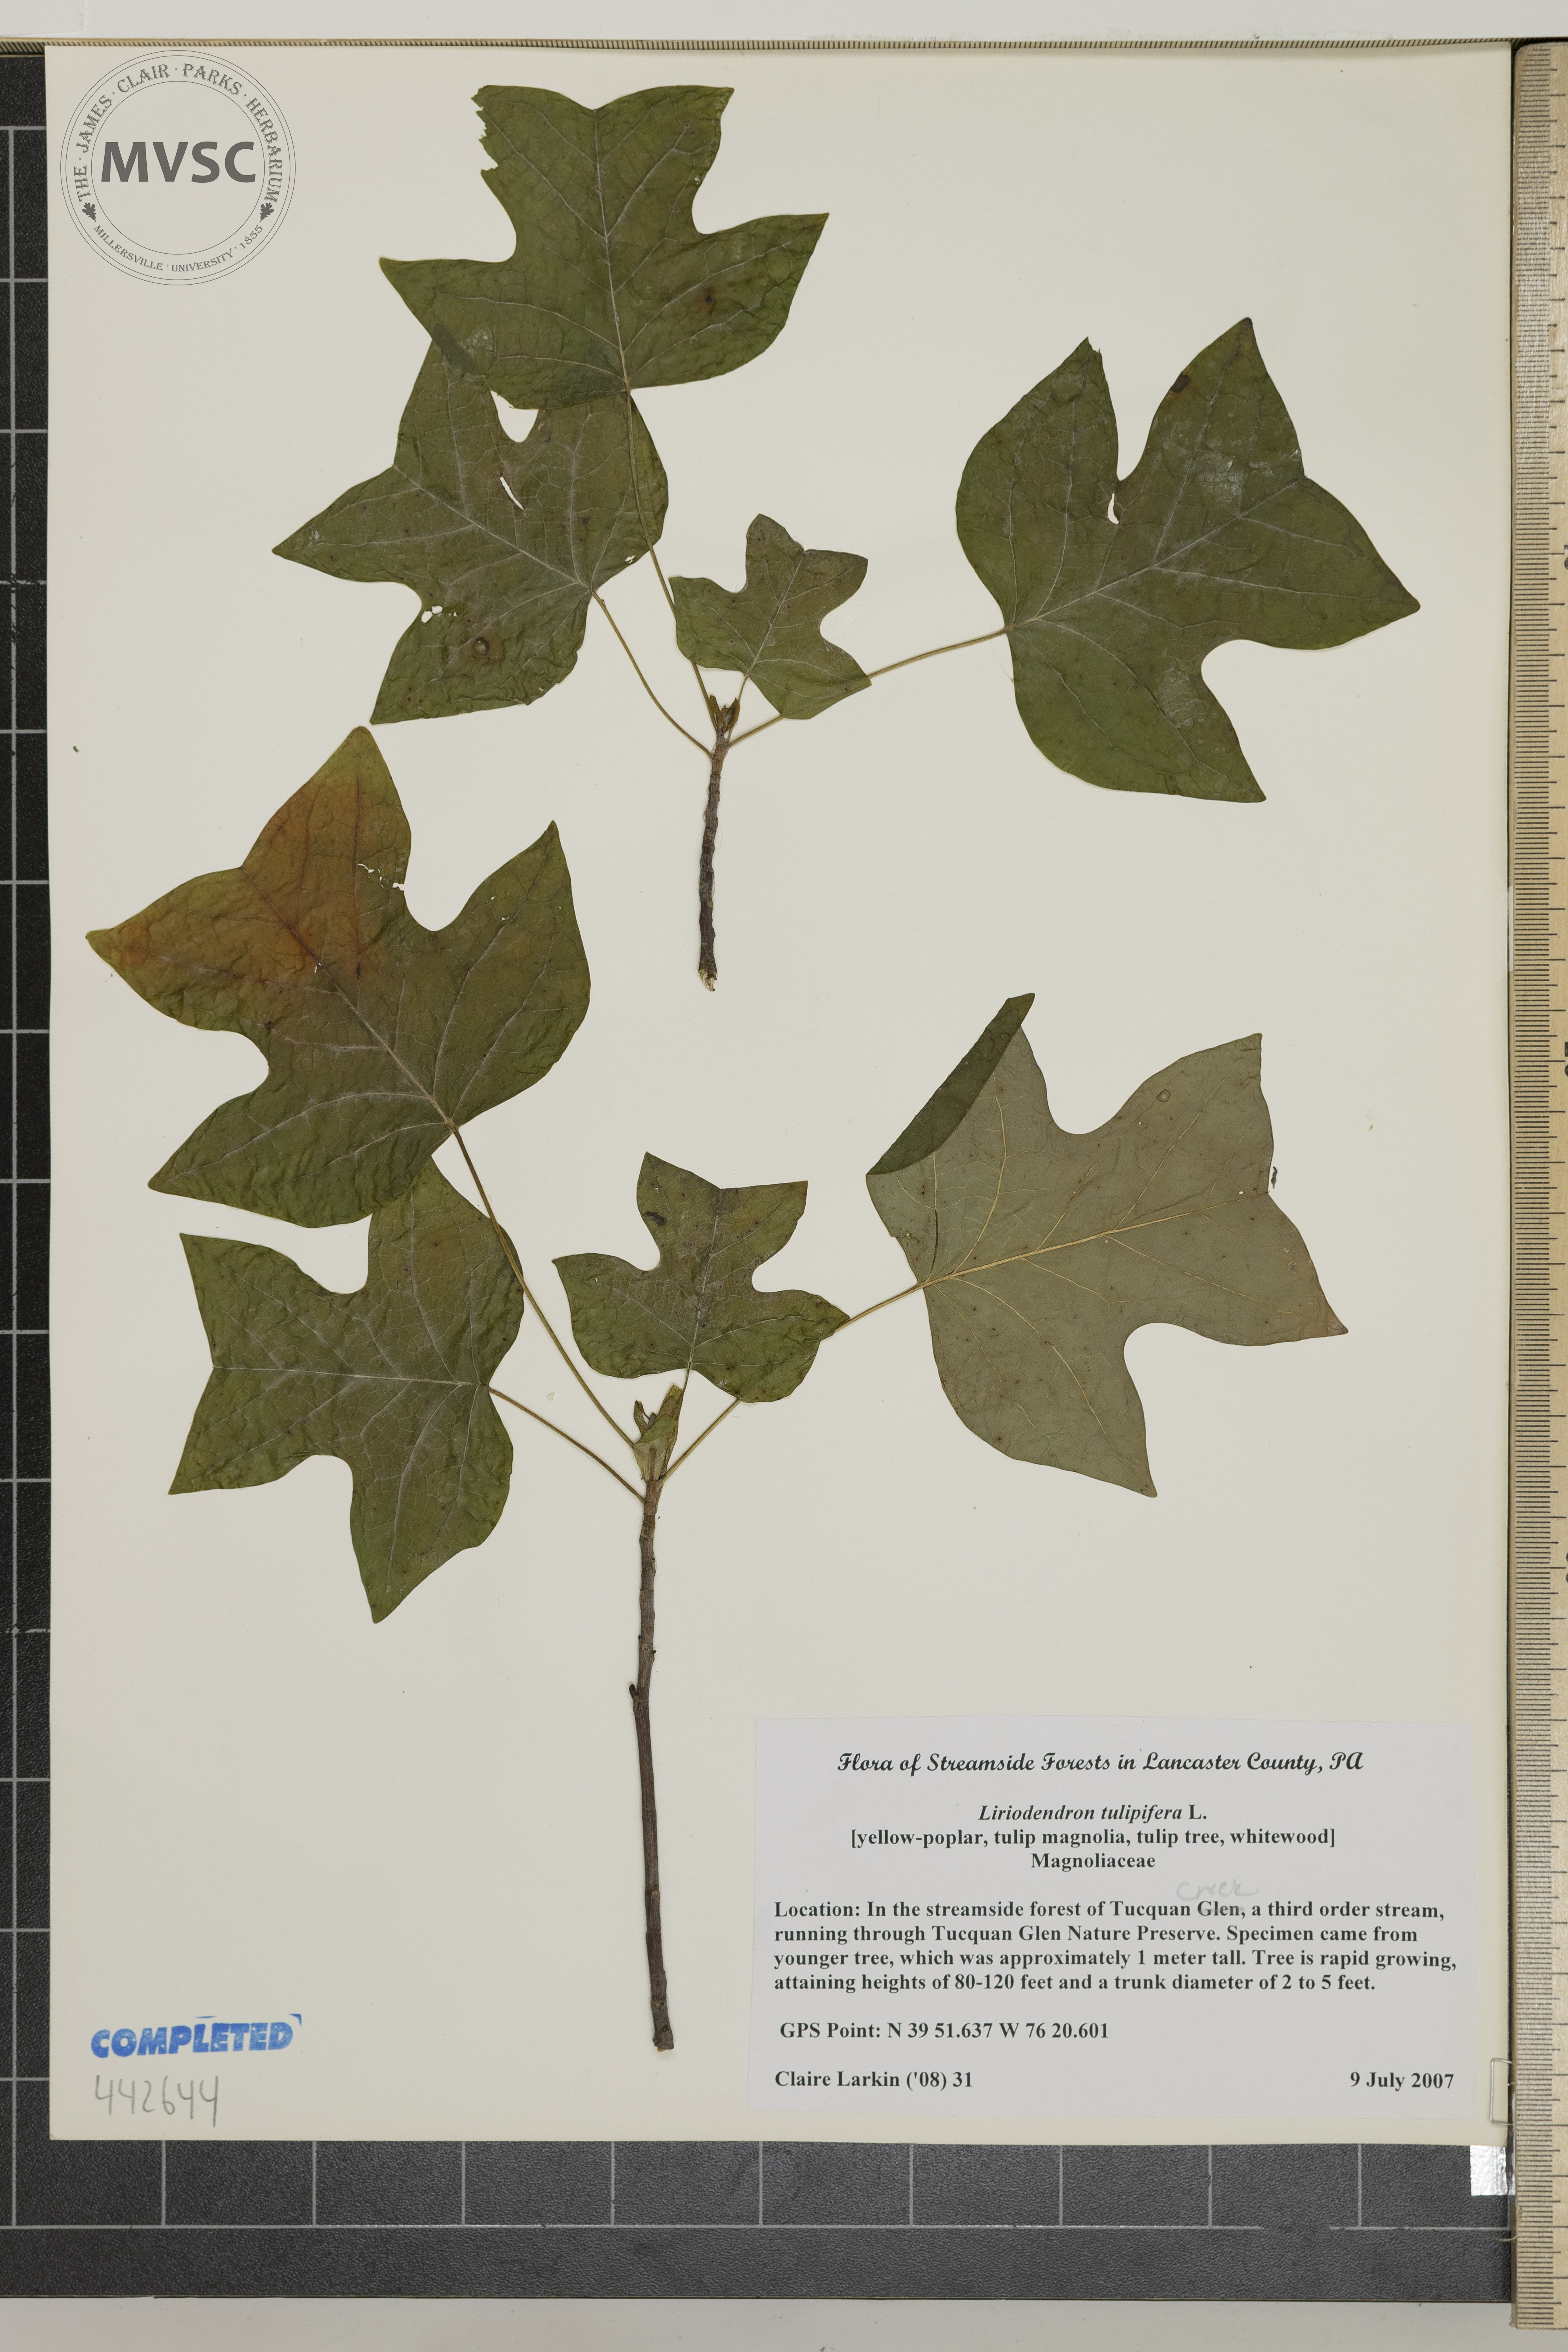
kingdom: Plantae
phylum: Tracheophyta
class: Magnoliopsida
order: Magnoliales
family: Magnoliaceae
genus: Liriodendron
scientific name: Liriodendron tulipifera
